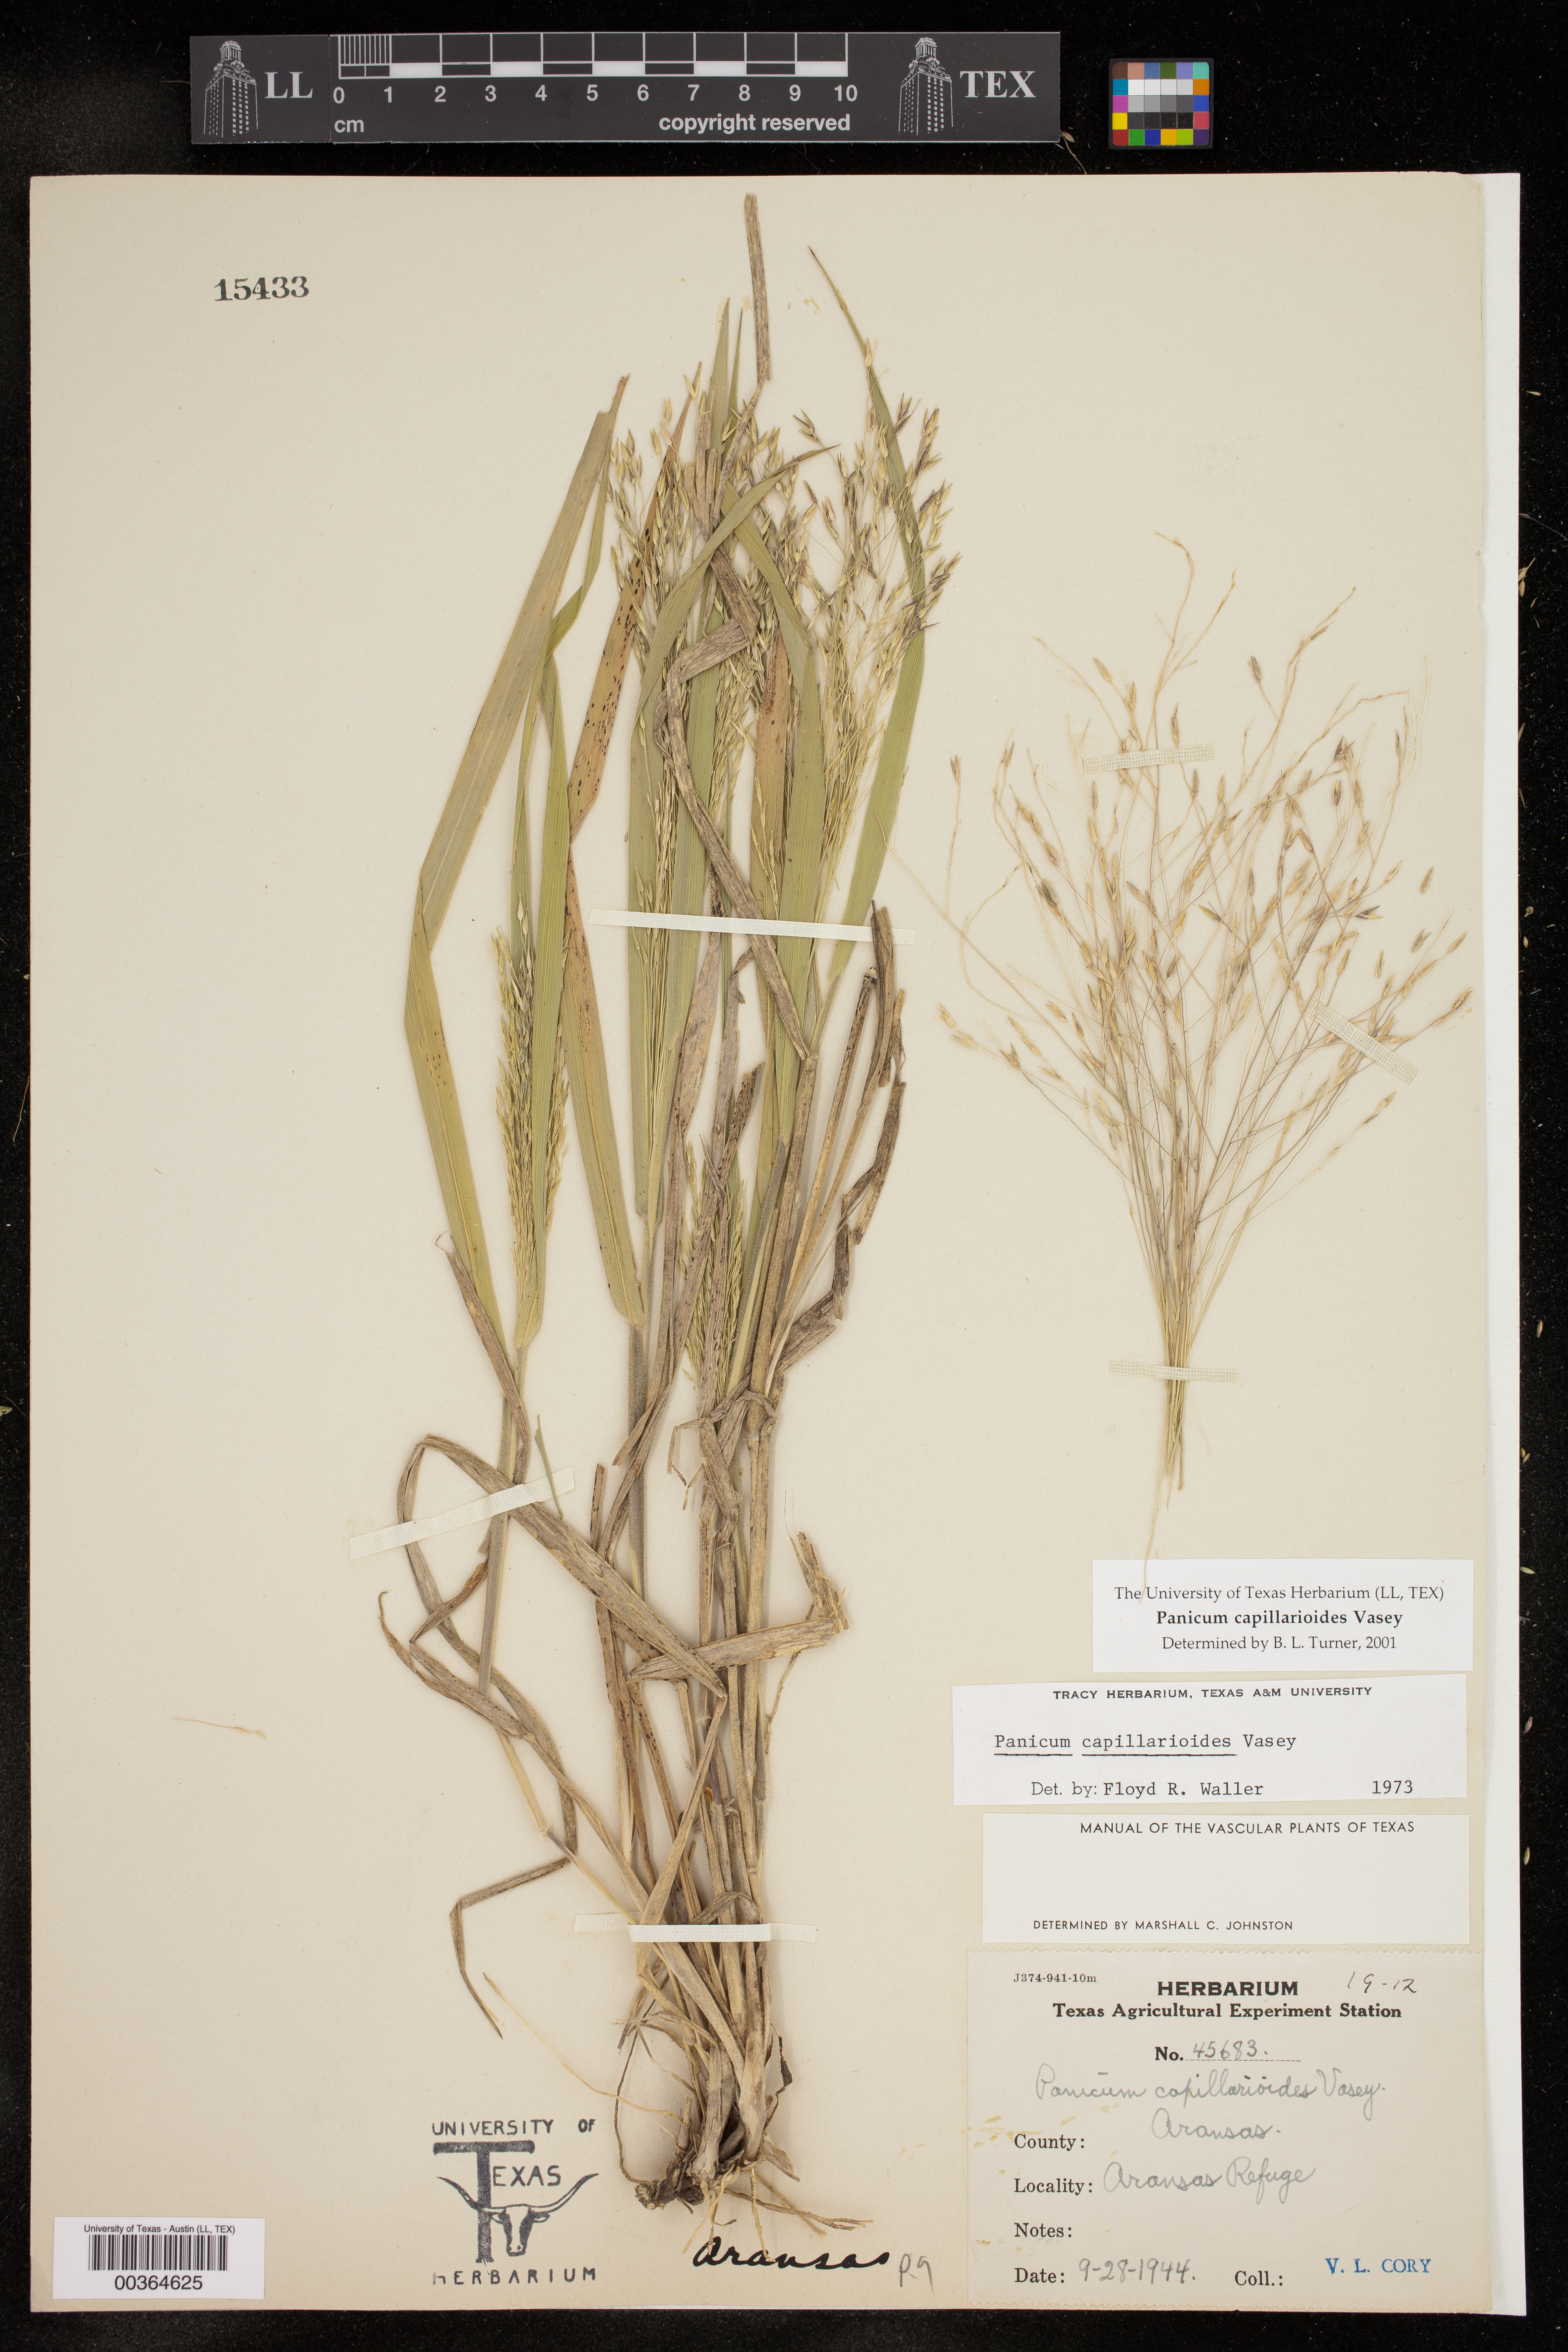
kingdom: Plantae
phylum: Tracheophyta
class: Liliopsida
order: Poales
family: Poaceae
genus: Panicum
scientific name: Panicum capillarioides
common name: Long-beak witchgrass
